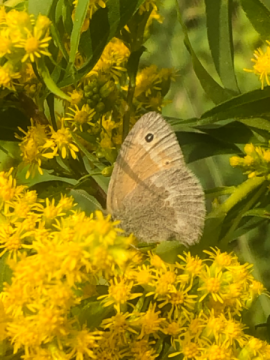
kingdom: Animalia
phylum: Arthropoda
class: Insecta
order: Lepidoptera
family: Nymphalidae
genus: Coenonympha
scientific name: Coenonympha california
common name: California Ringlet
